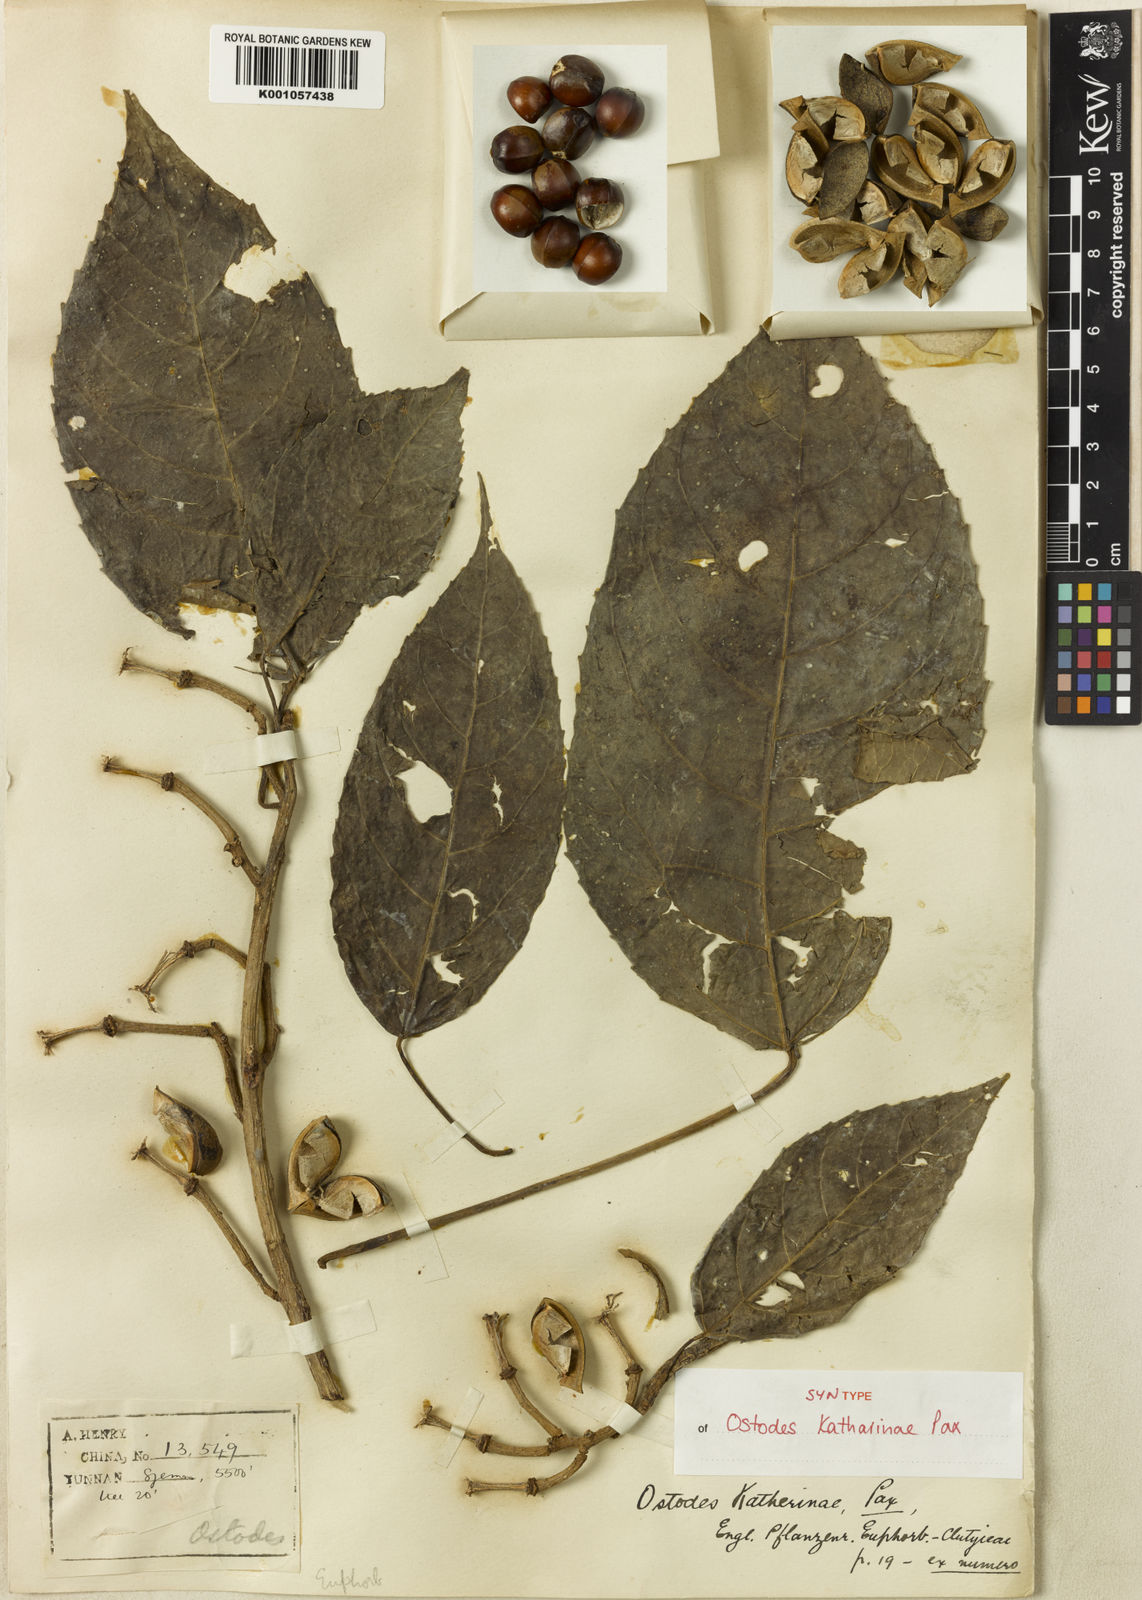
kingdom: Plantae
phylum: Tracheophyta
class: Magnoliopsida
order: Malpighiales
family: Euphorbiaceae
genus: Ostodes
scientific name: Ostodes paniculata
